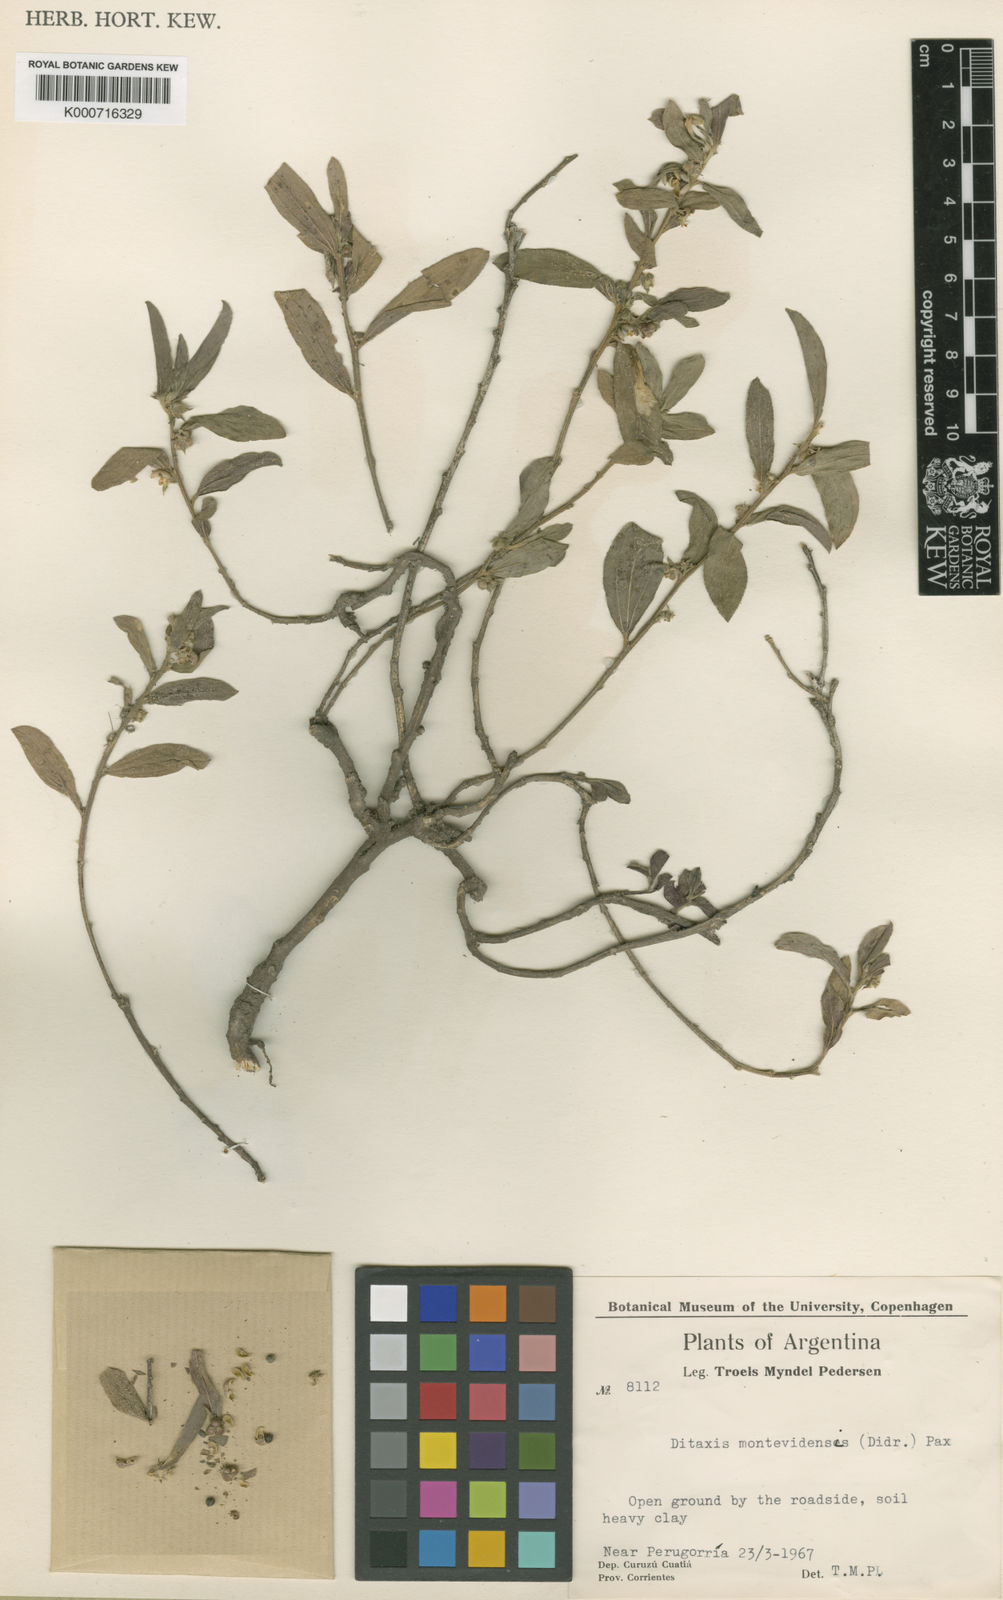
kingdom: Plantae
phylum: Tracheophyta
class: Magnoliopsida
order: Malpighiales
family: Euphorbiaceae
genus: Ditaxis
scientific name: Ditaxis montevidensis
